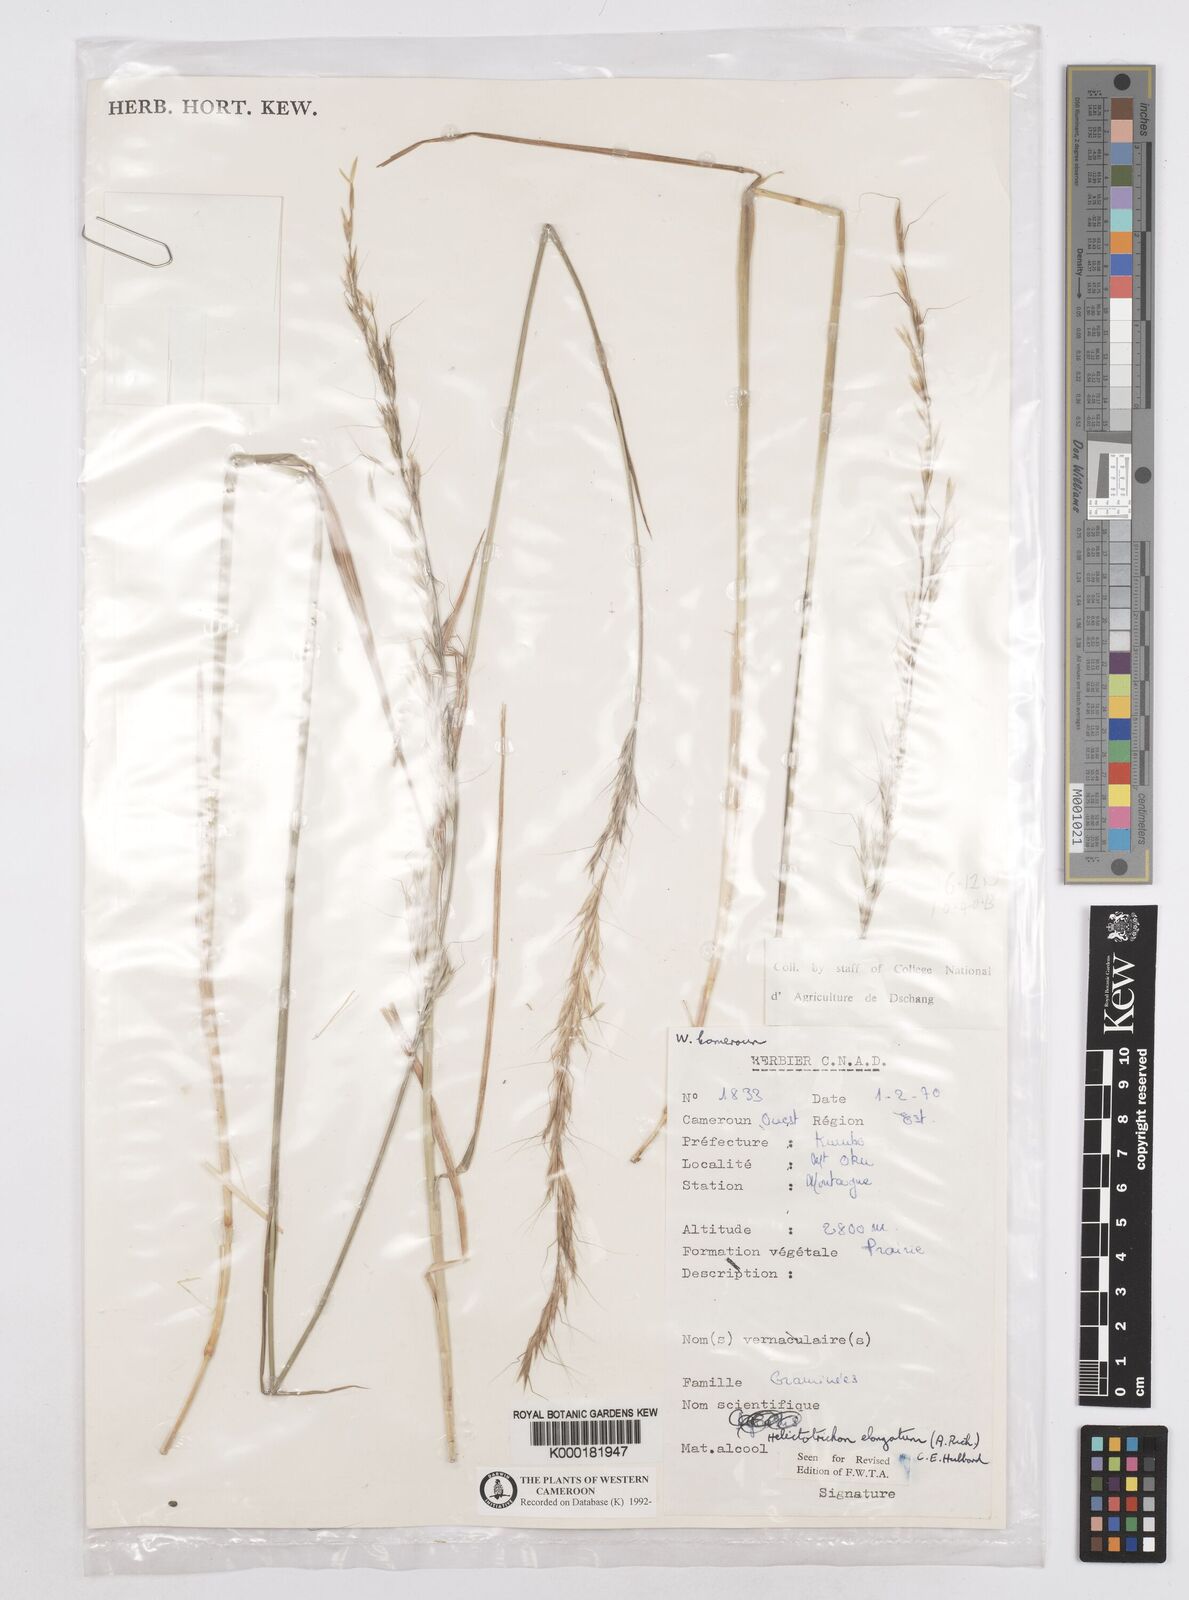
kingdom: Plantae
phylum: Tracheophyta
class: Liliopsida
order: Poales
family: Poaceae
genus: Trisetopsis
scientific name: Trisetopsis elongata
